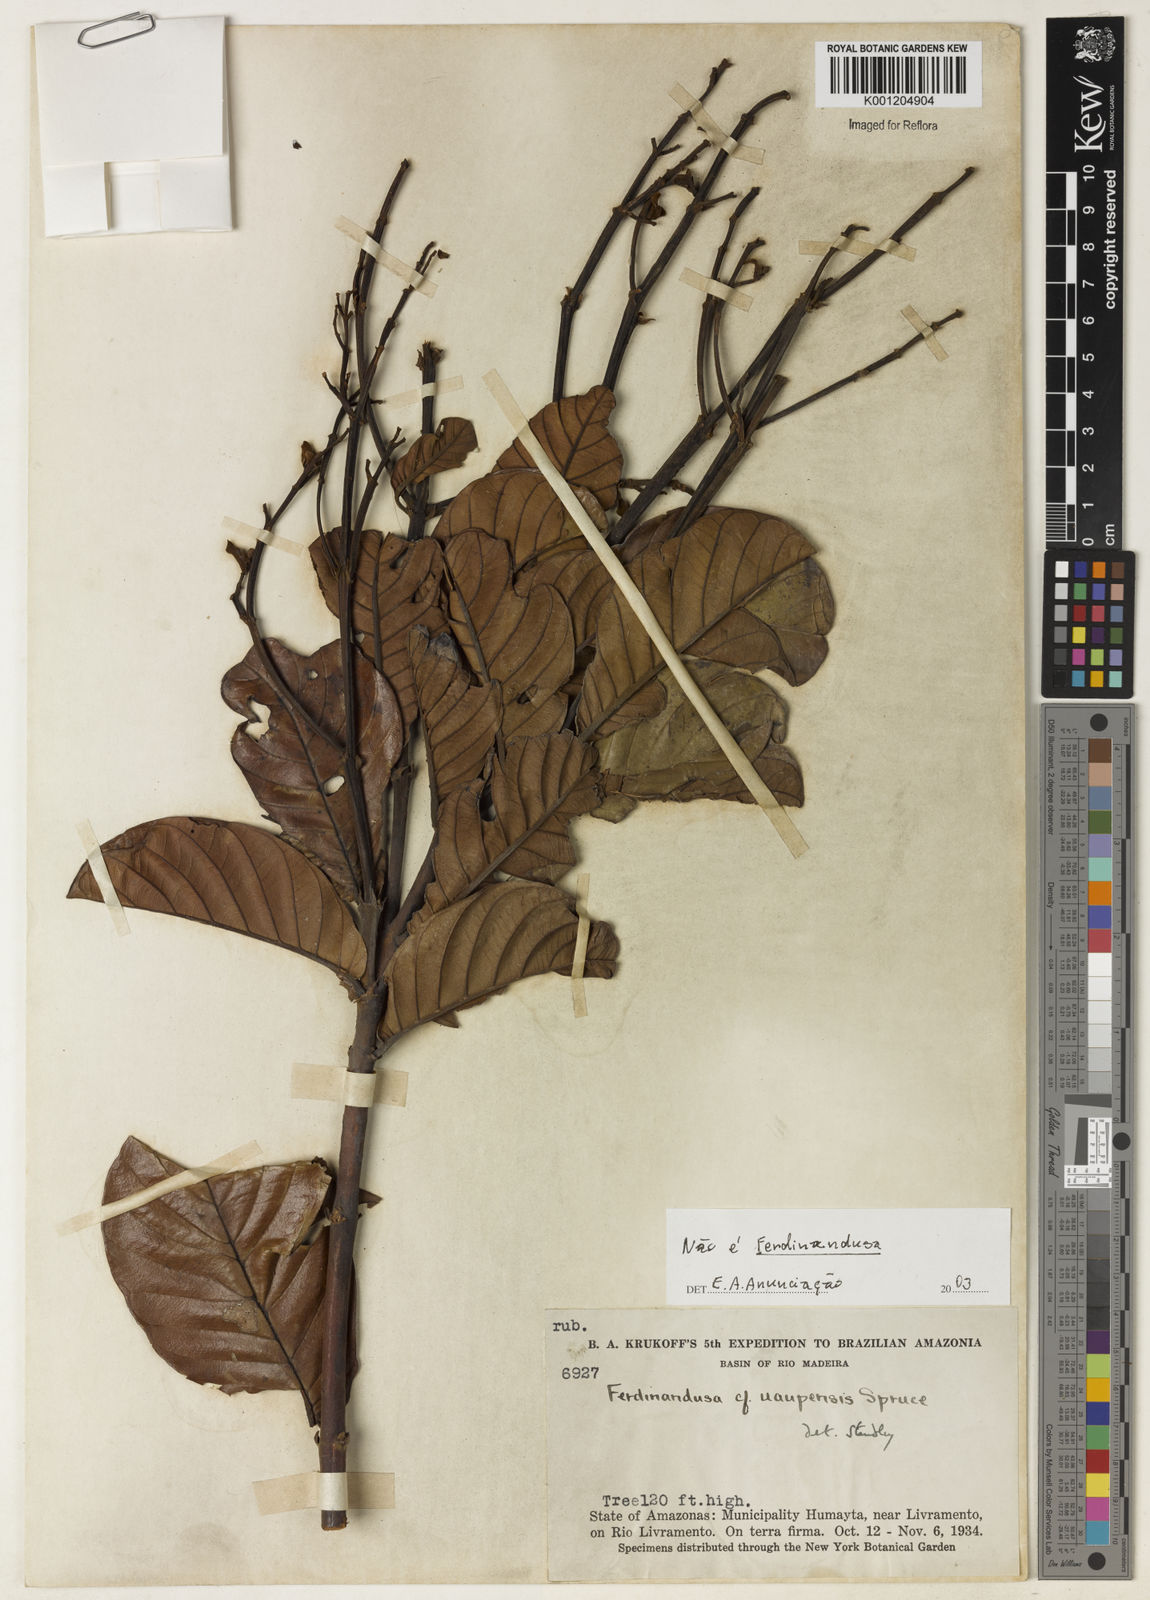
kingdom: Plantae
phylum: Tracheophyta
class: Magnoliopsida
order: Gentianales
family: Rubiaceae
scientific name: Rubiaceae
